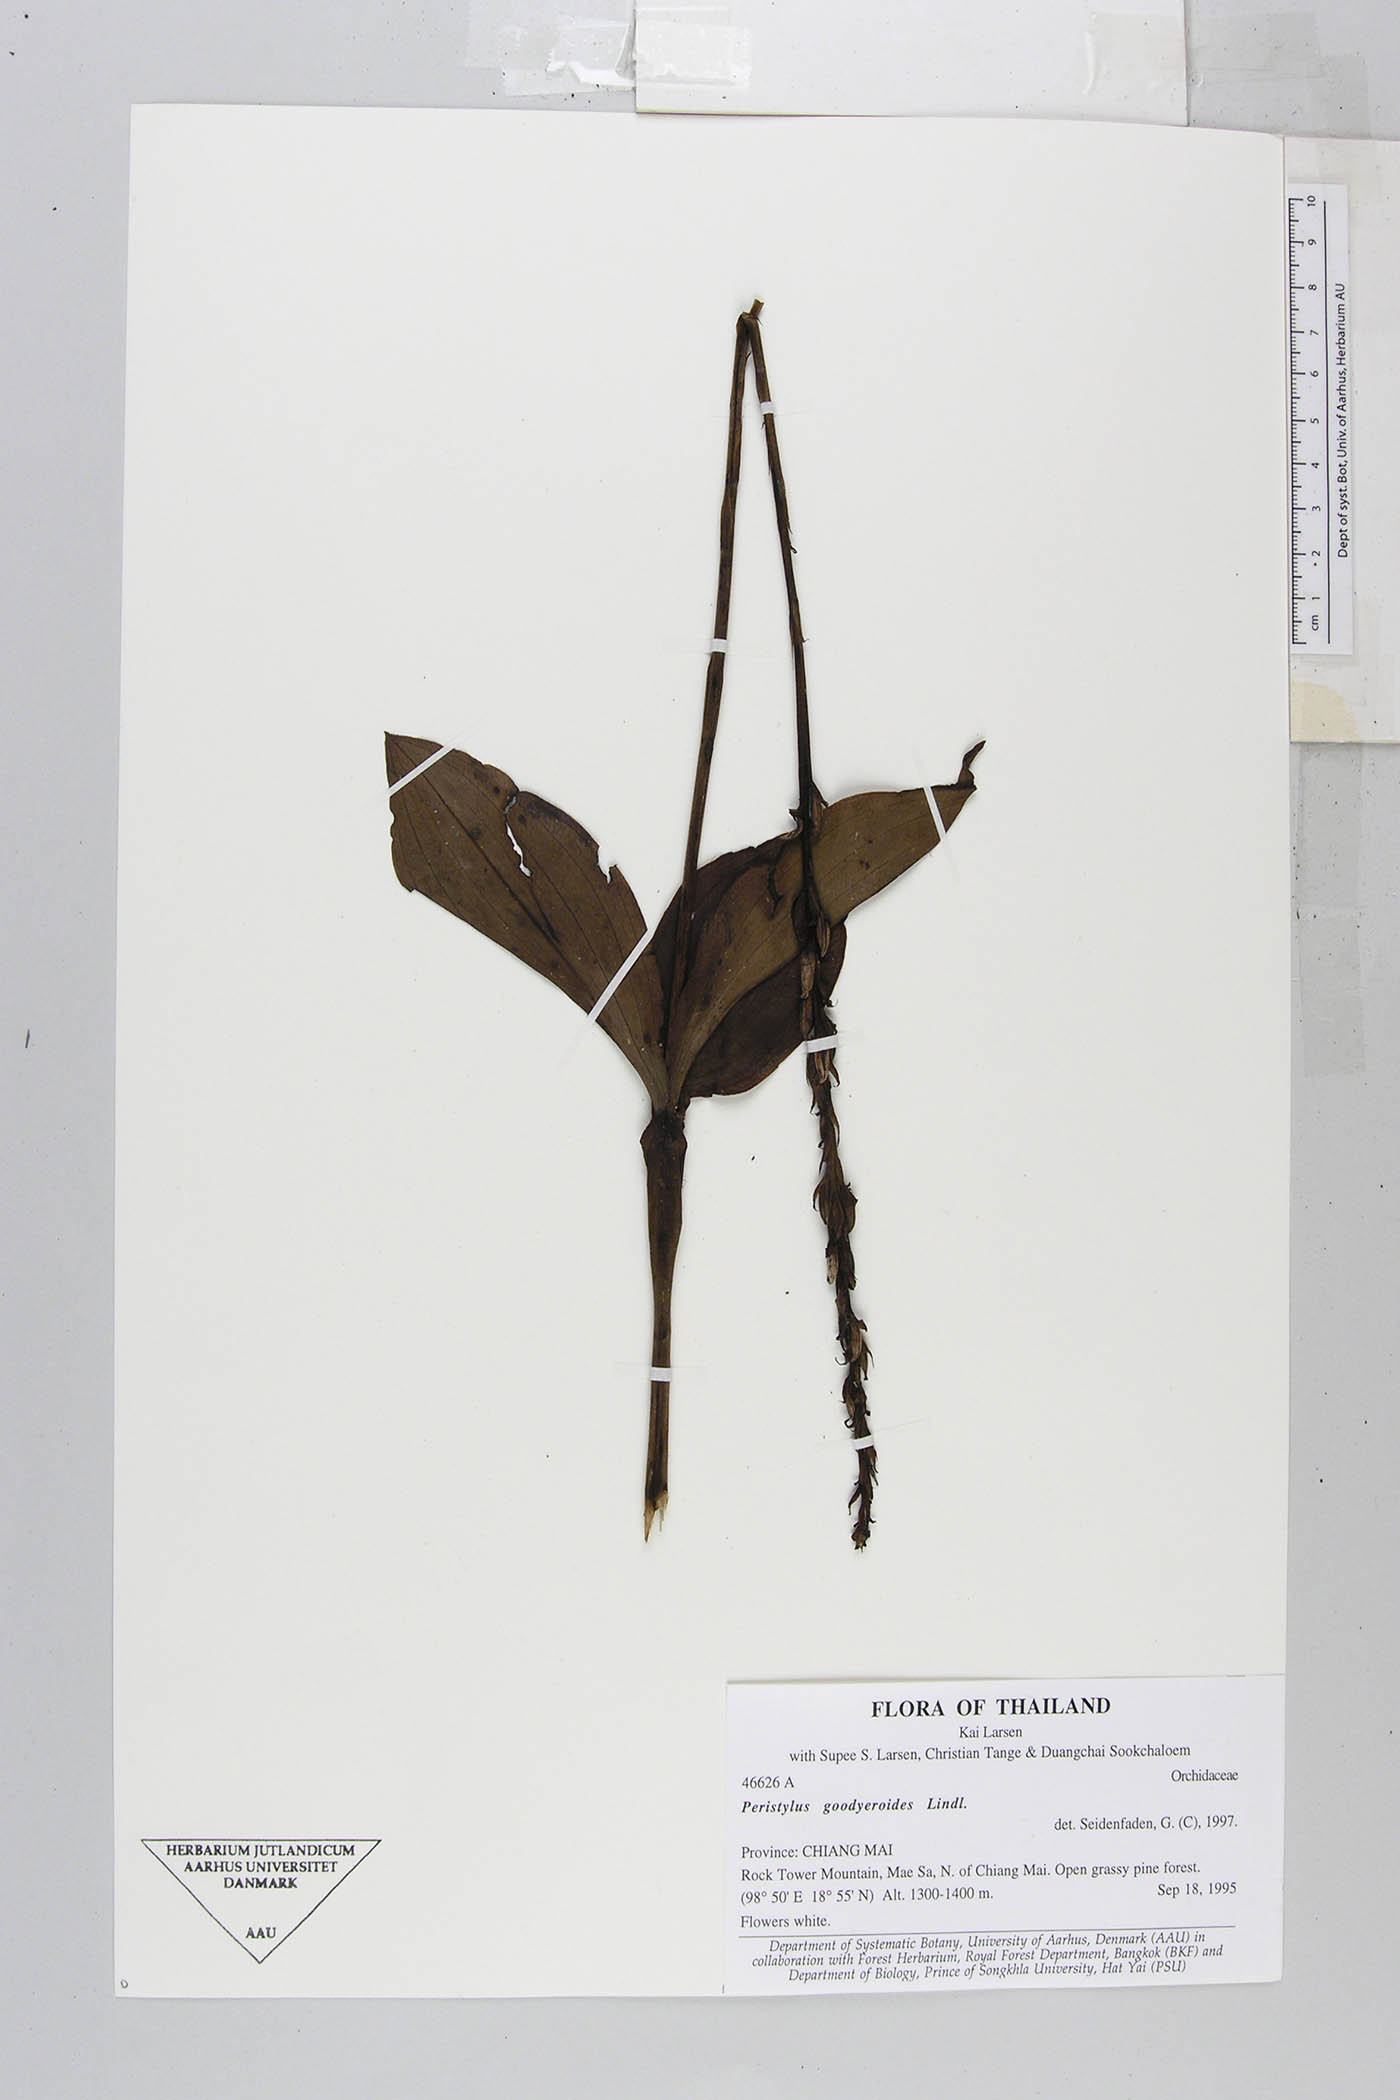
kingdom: Plantae
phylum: Tracheophyta
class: Liliopsida
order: Asparagales
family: Orchidaceae
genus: Peristylus
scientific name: Peristylus goodyeroides
